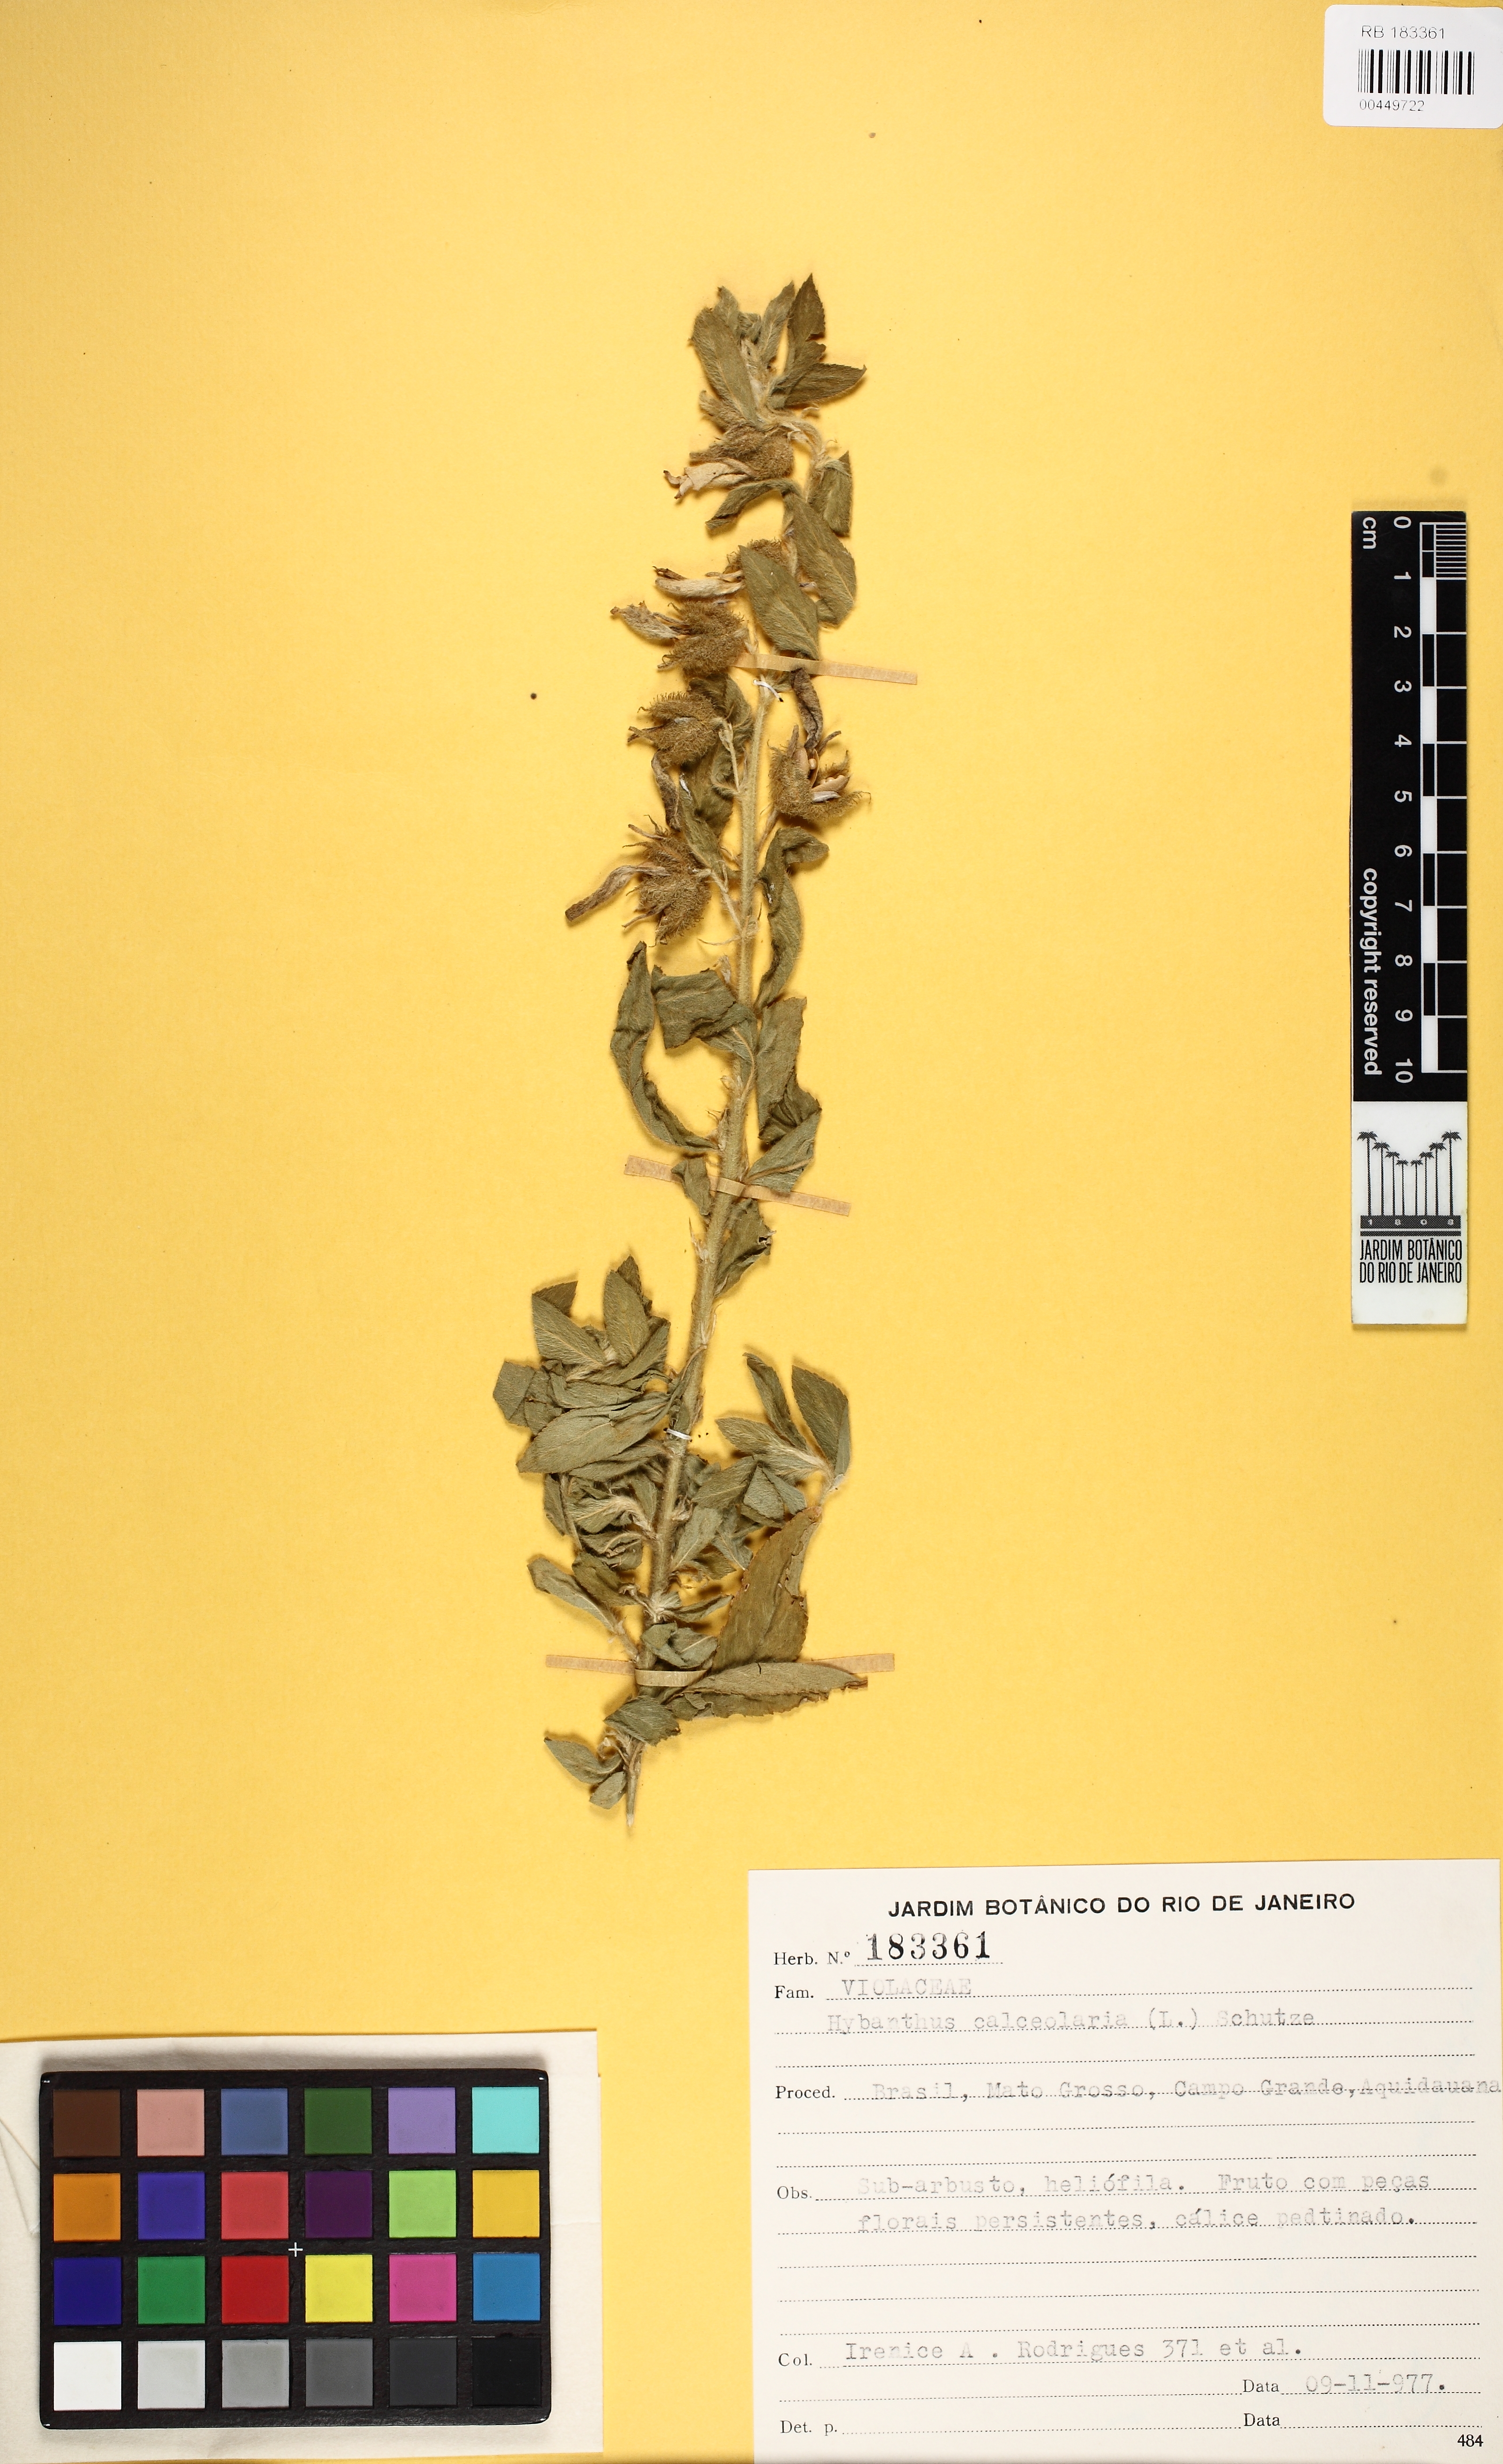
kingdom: Plantae
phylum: Tracheophyta
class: Magnoliopsida
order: Malpighiales
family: Violaceae
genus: Pombalia
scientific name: Pombalia calceolaria
